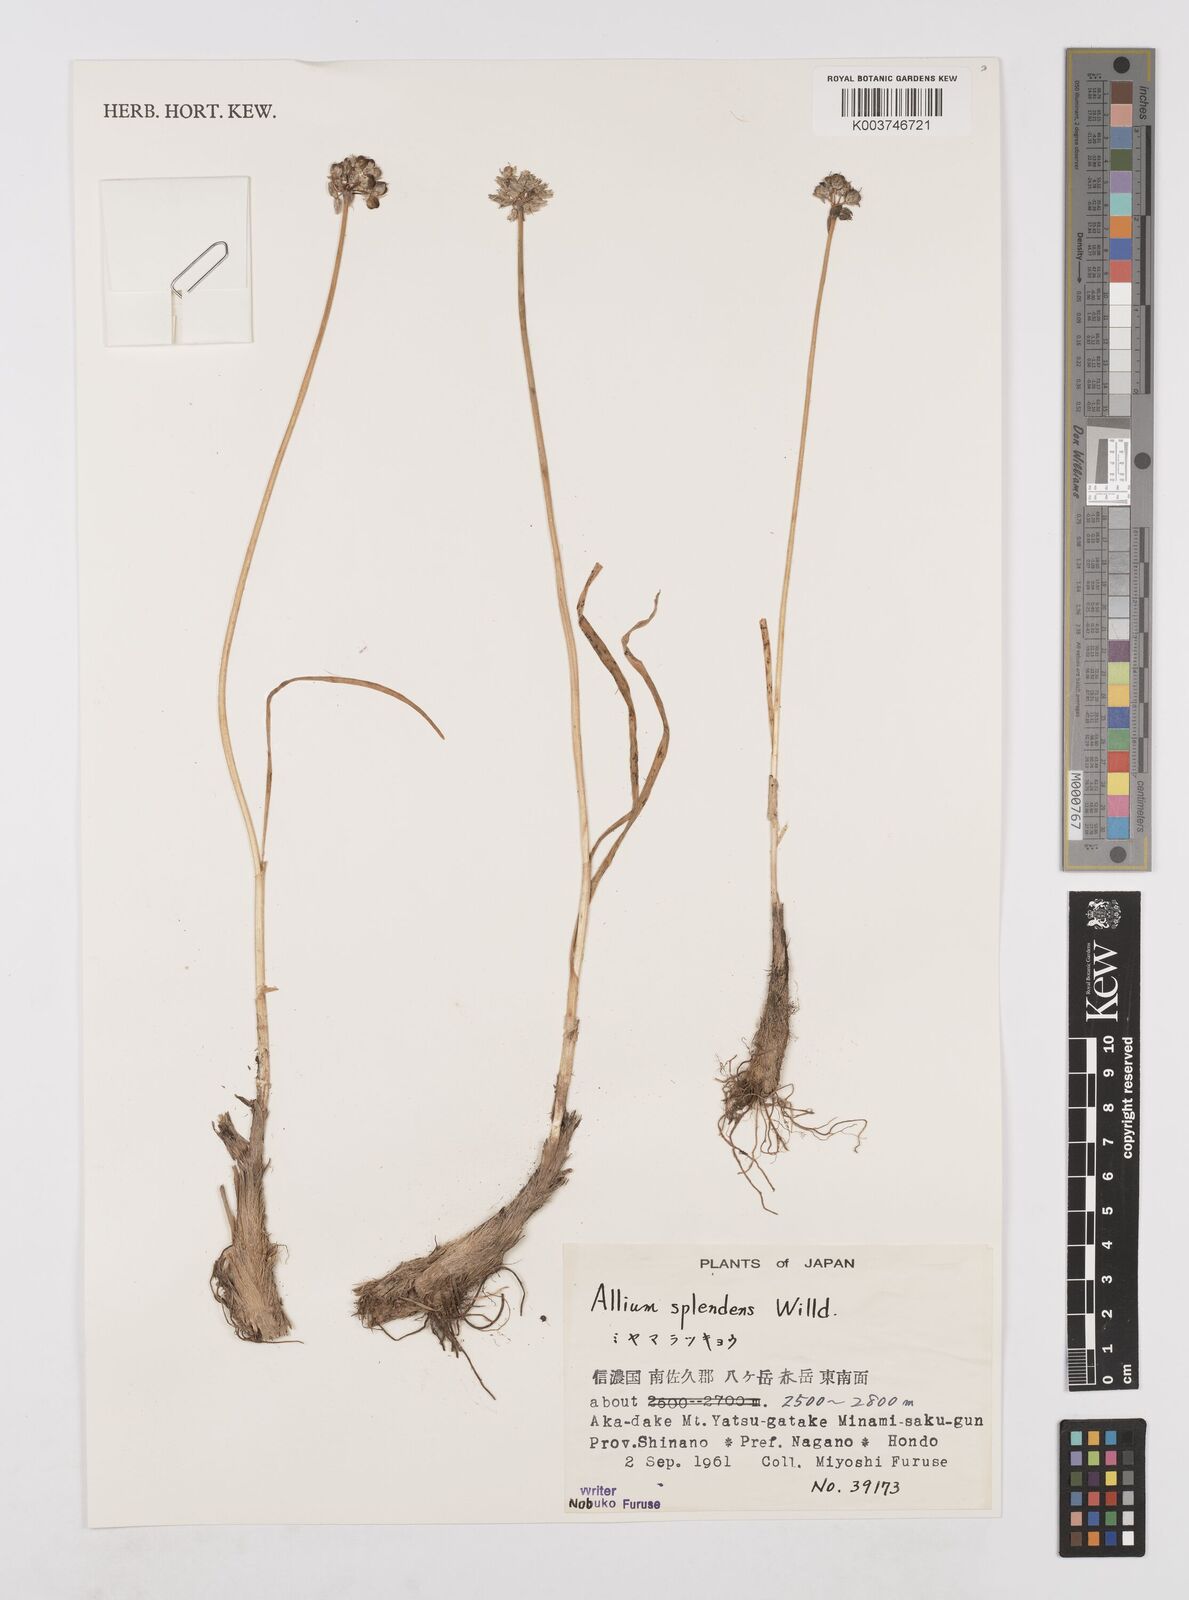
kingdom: Plantae
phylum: Tracheophyta
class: Liliopsida
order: Asparagales
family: Amaryllidaceae
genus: Allium
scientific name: Allium splendens
